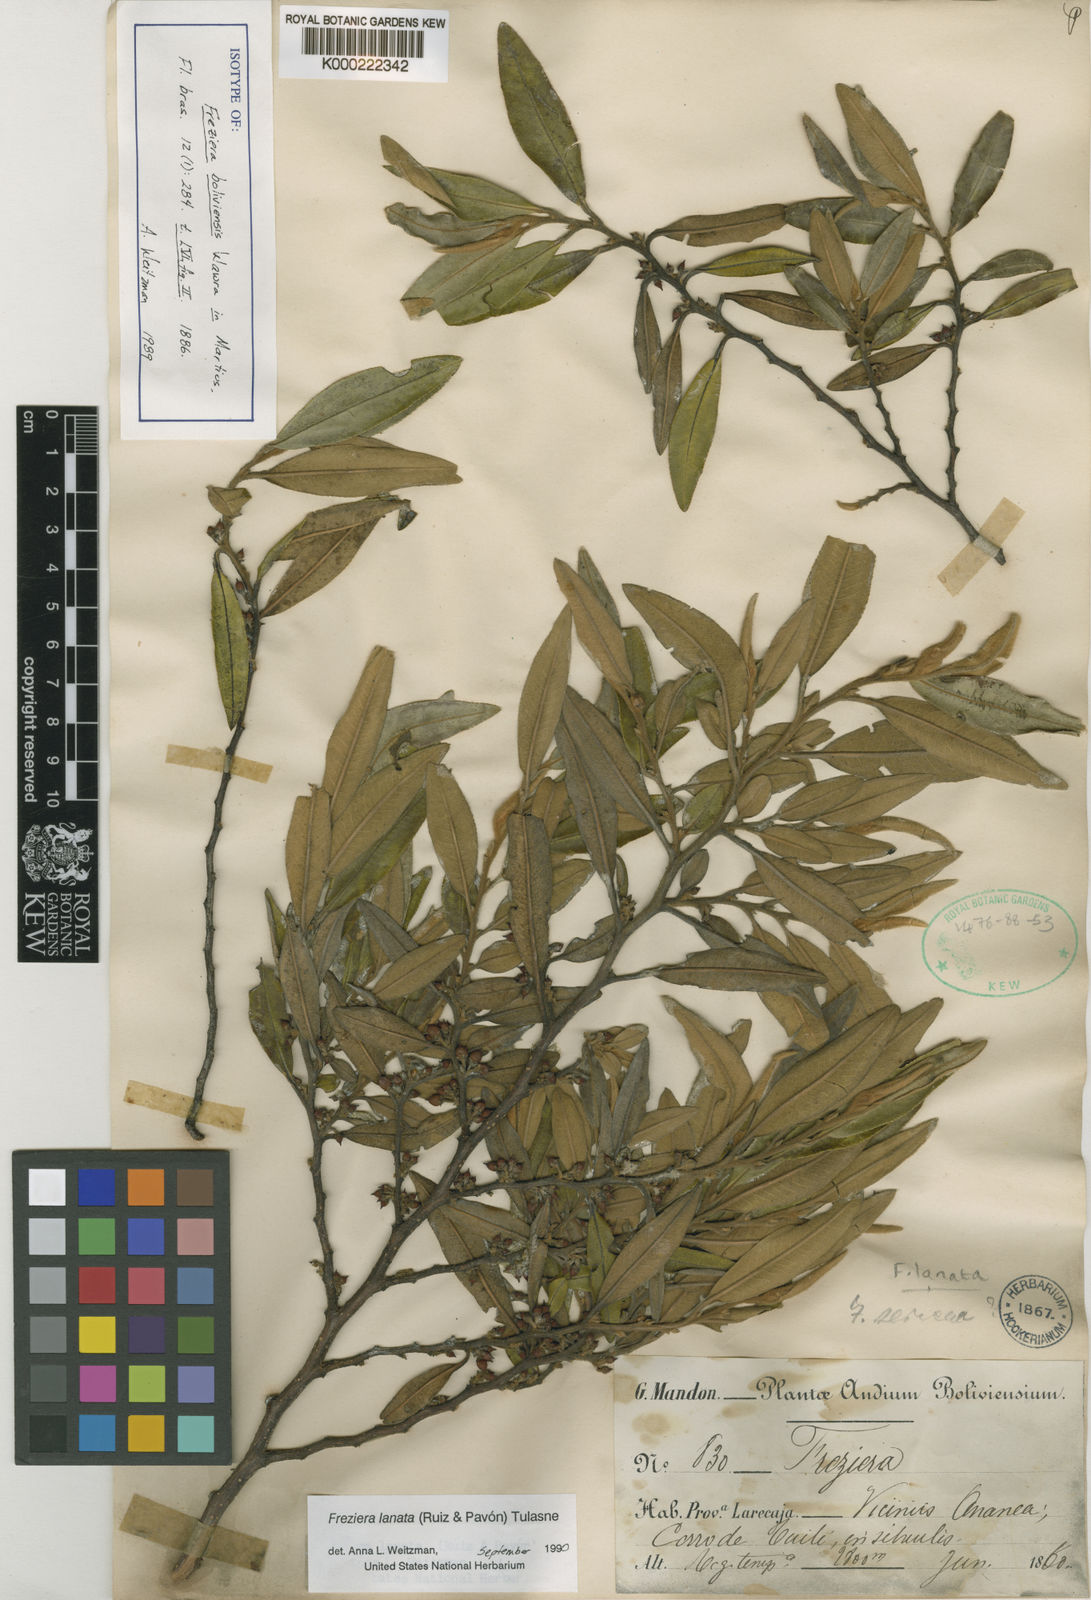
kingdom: Plantae
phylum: Tracheophyta
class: Magnoliopsida
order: Ericales
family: Pentaphylacaceae
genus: Freziera
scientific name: Freziera lanata
